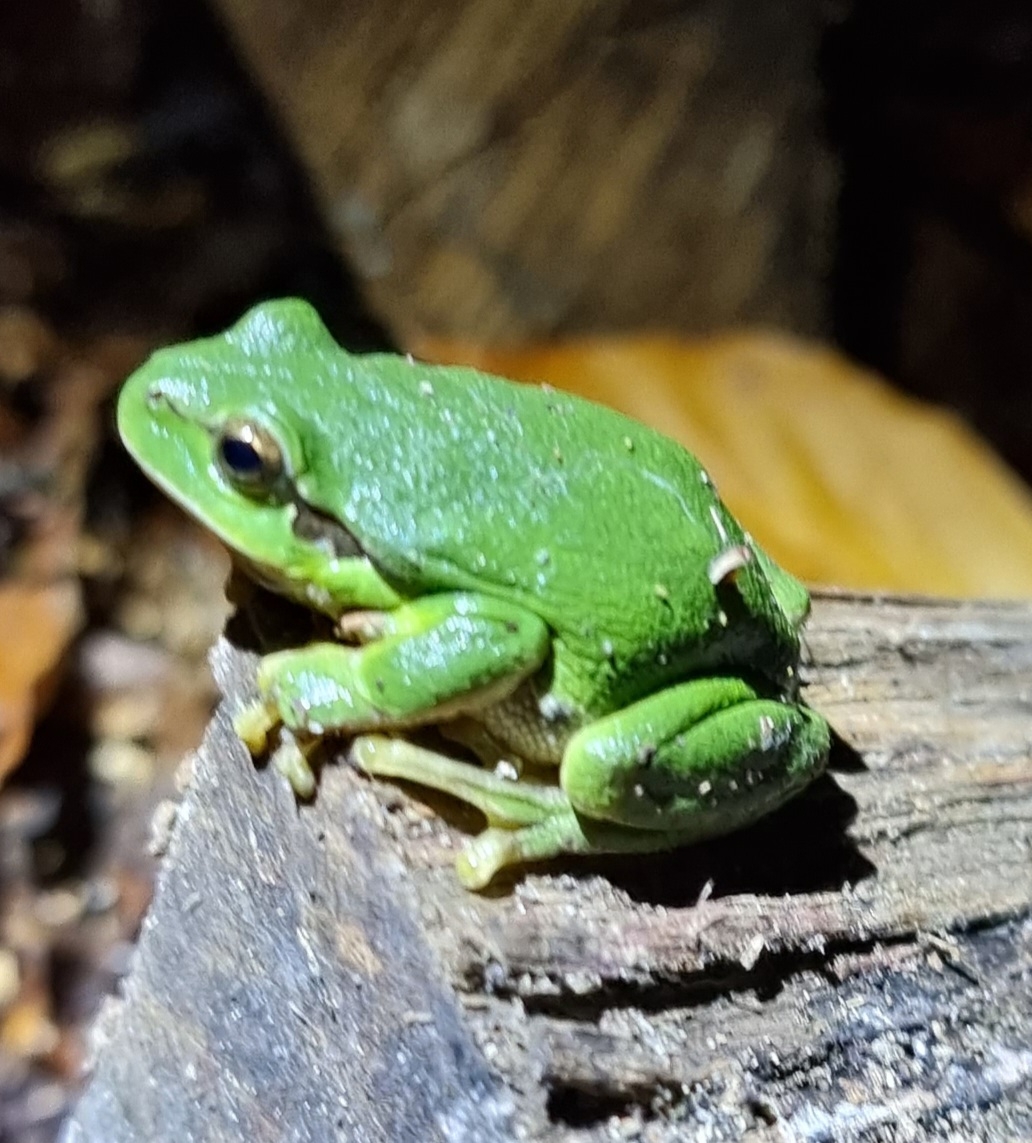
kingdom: Animalia
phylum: Chordata
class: Amphibia
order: Anura
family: Hylidae
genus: Hyla
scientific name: Hyla arborea
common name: Løvfrø
